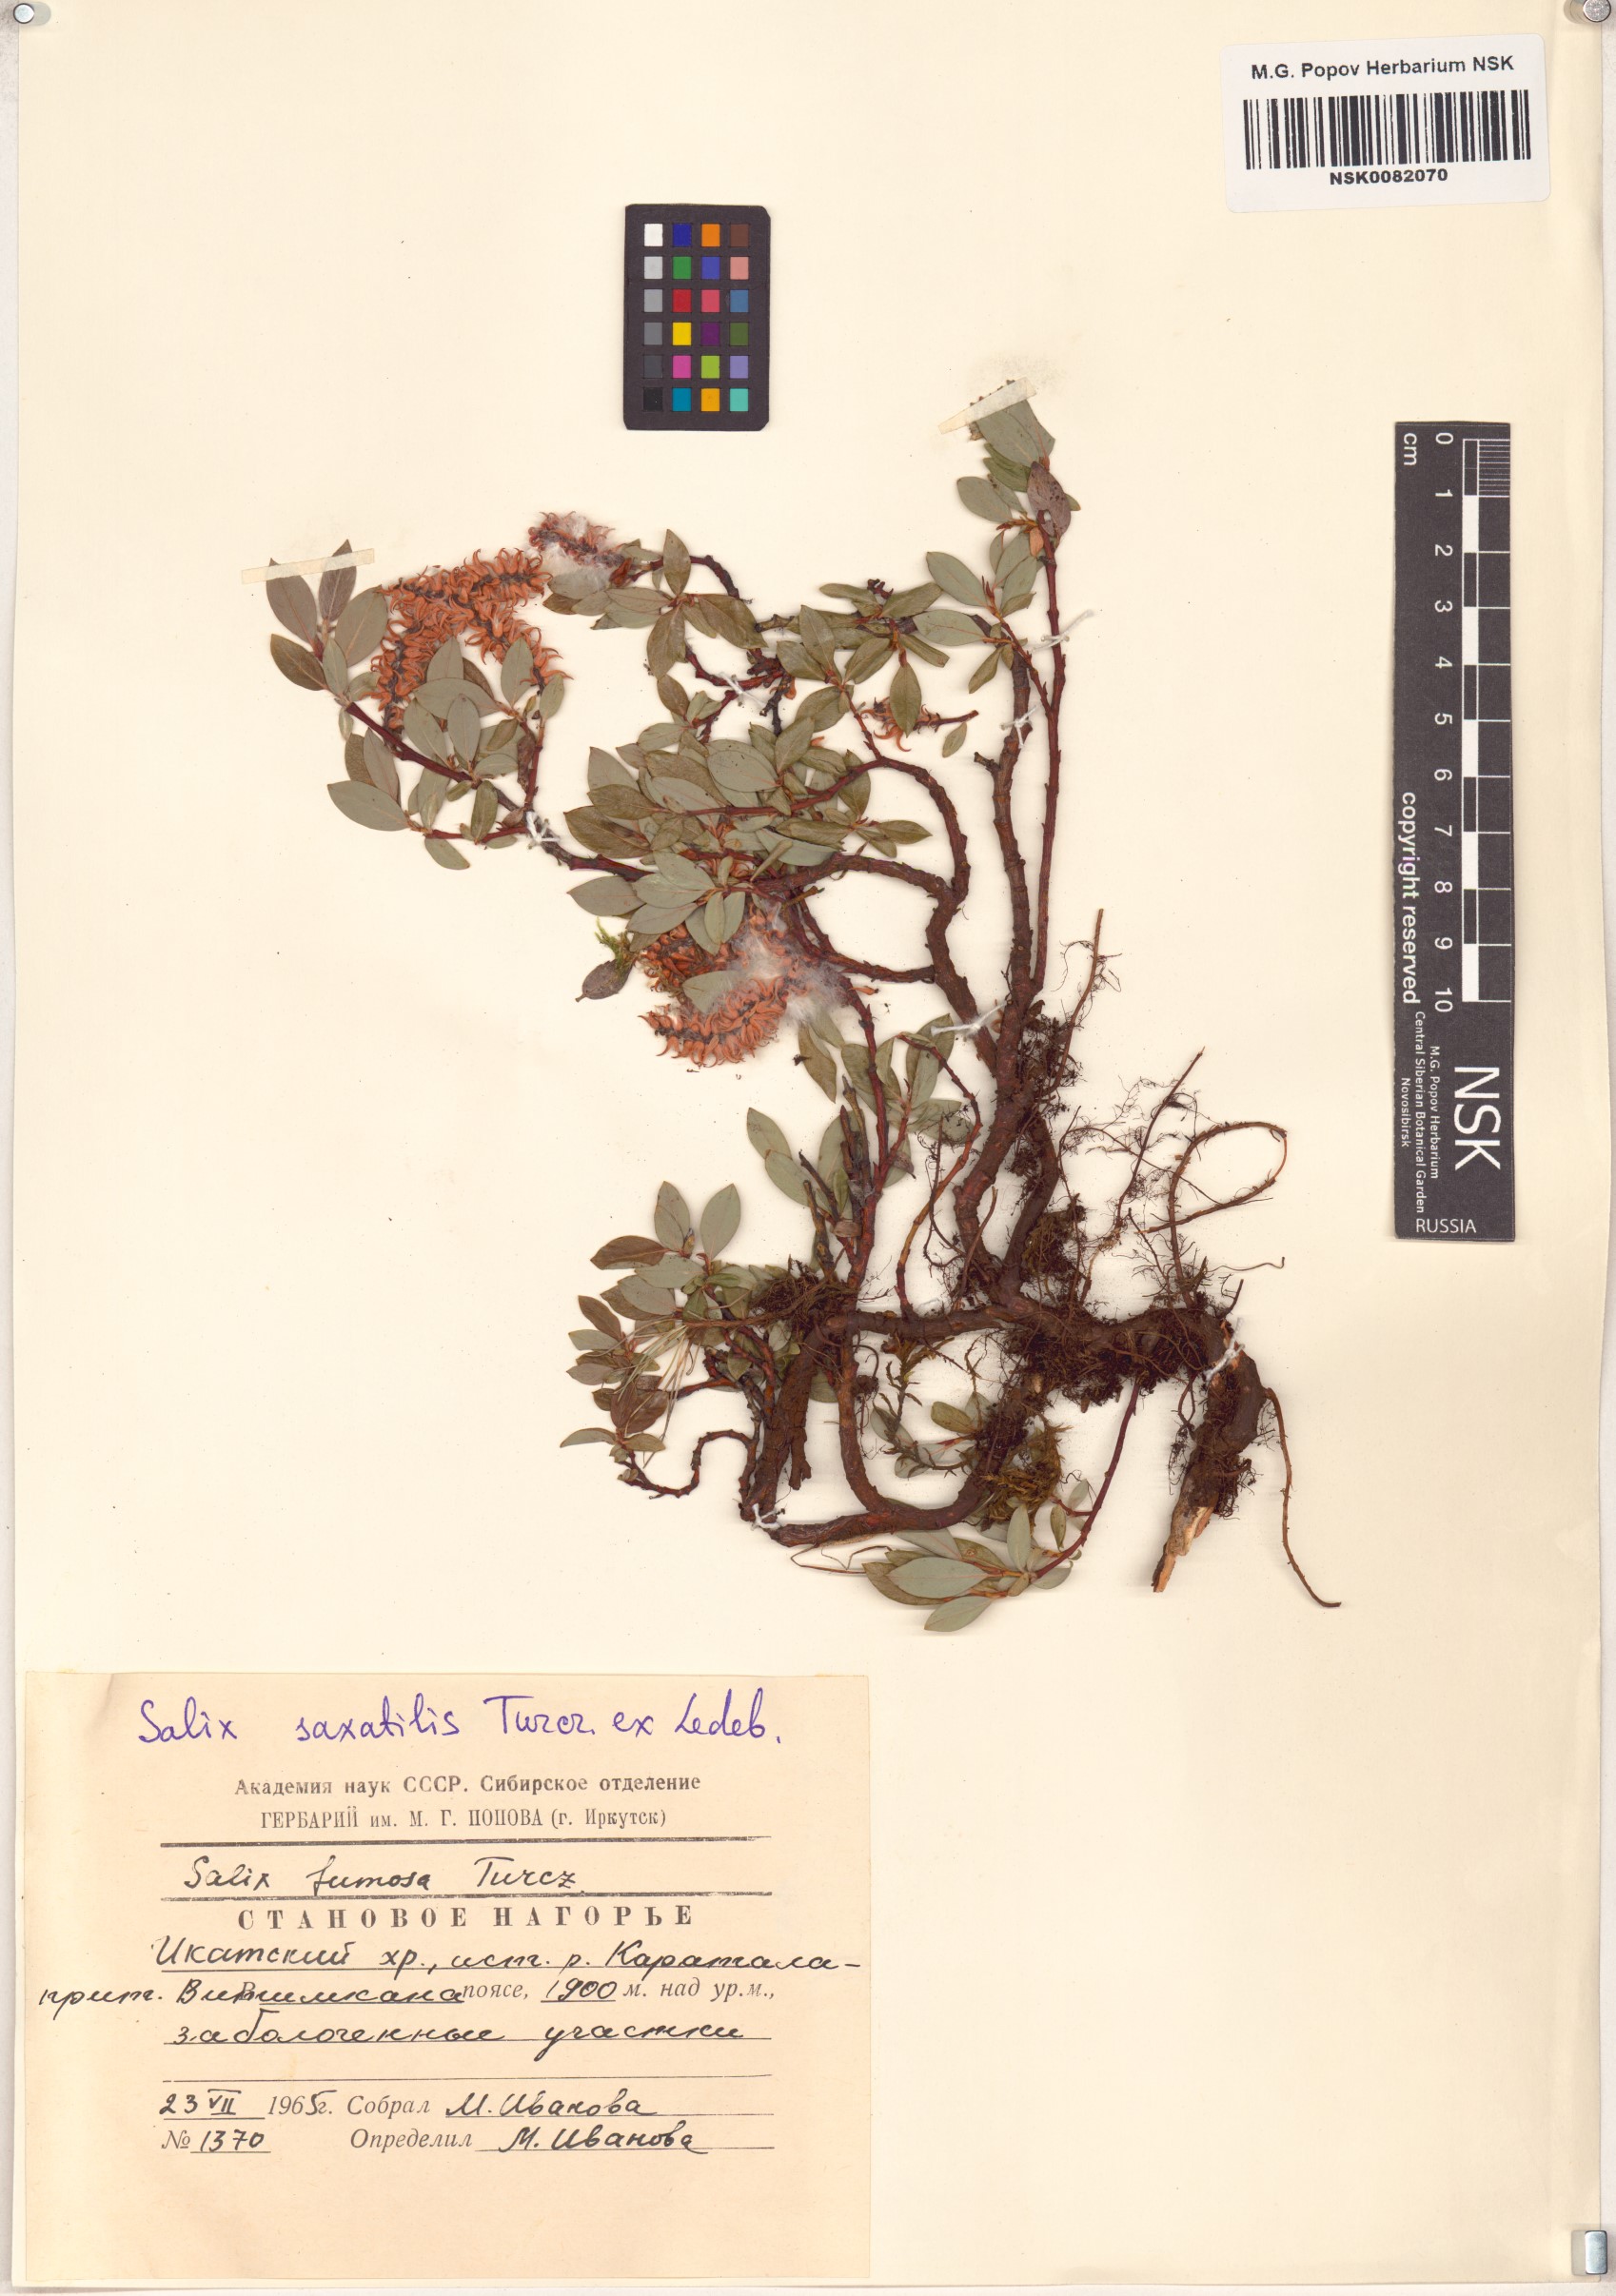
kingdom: Plantae
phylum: Tracheophyta
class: Magnoliopsida
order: Malpighiales
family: Salicaceae
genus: Salix
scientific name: Salix saxatilis
